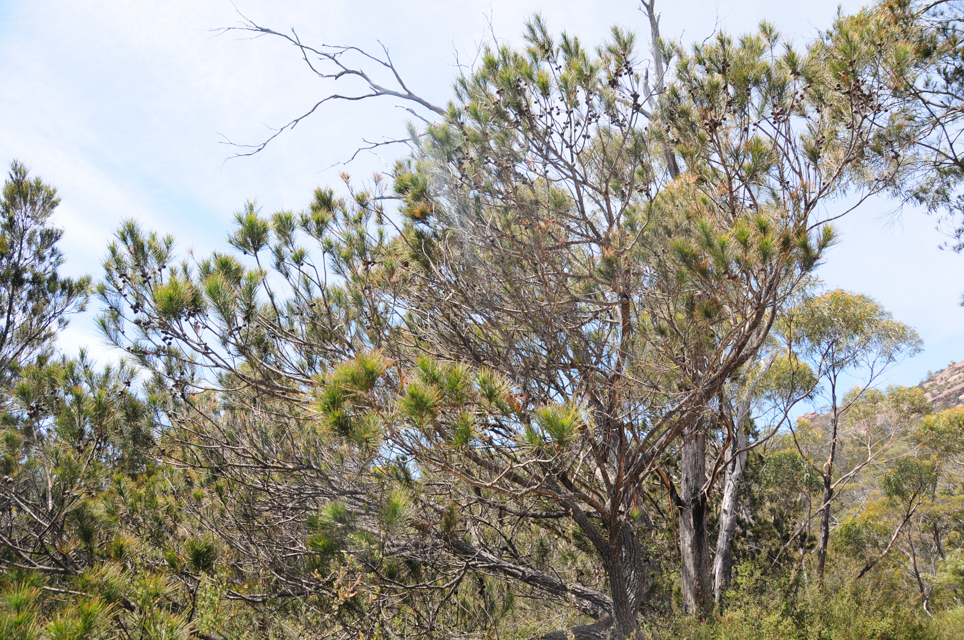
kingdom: Plantae
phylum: Tracheophyta
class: Magnoliopsida
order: Fagales
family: Casuarinaceae
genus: Allocasuarina
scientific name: Allocasuarina littoralis
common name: Black she-oak
